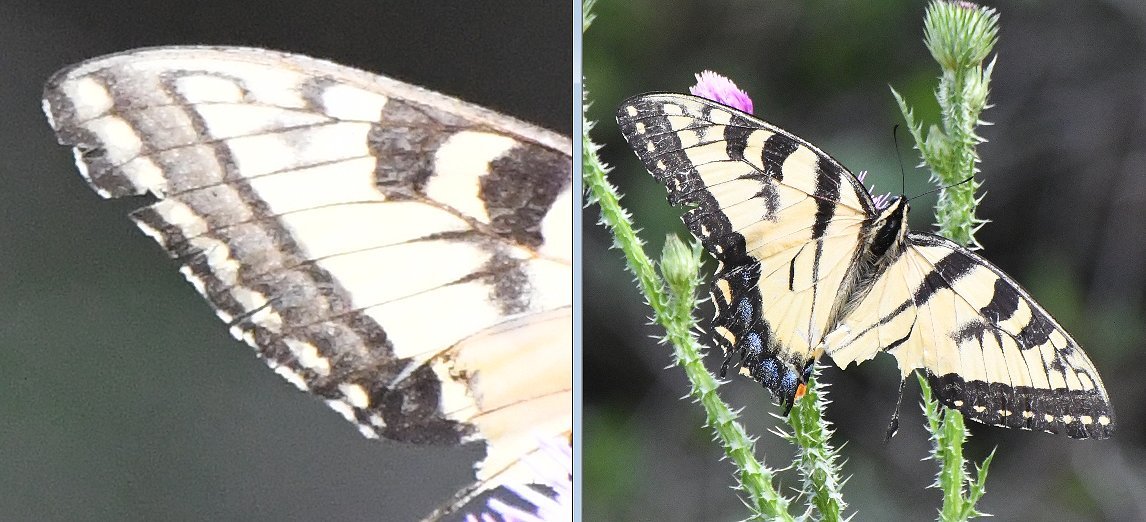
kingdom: Animalia
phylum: Arthropoda
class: Insecta
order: Lepidoptera
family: Papilionidae
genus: Pterourus
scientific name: Pterourus
